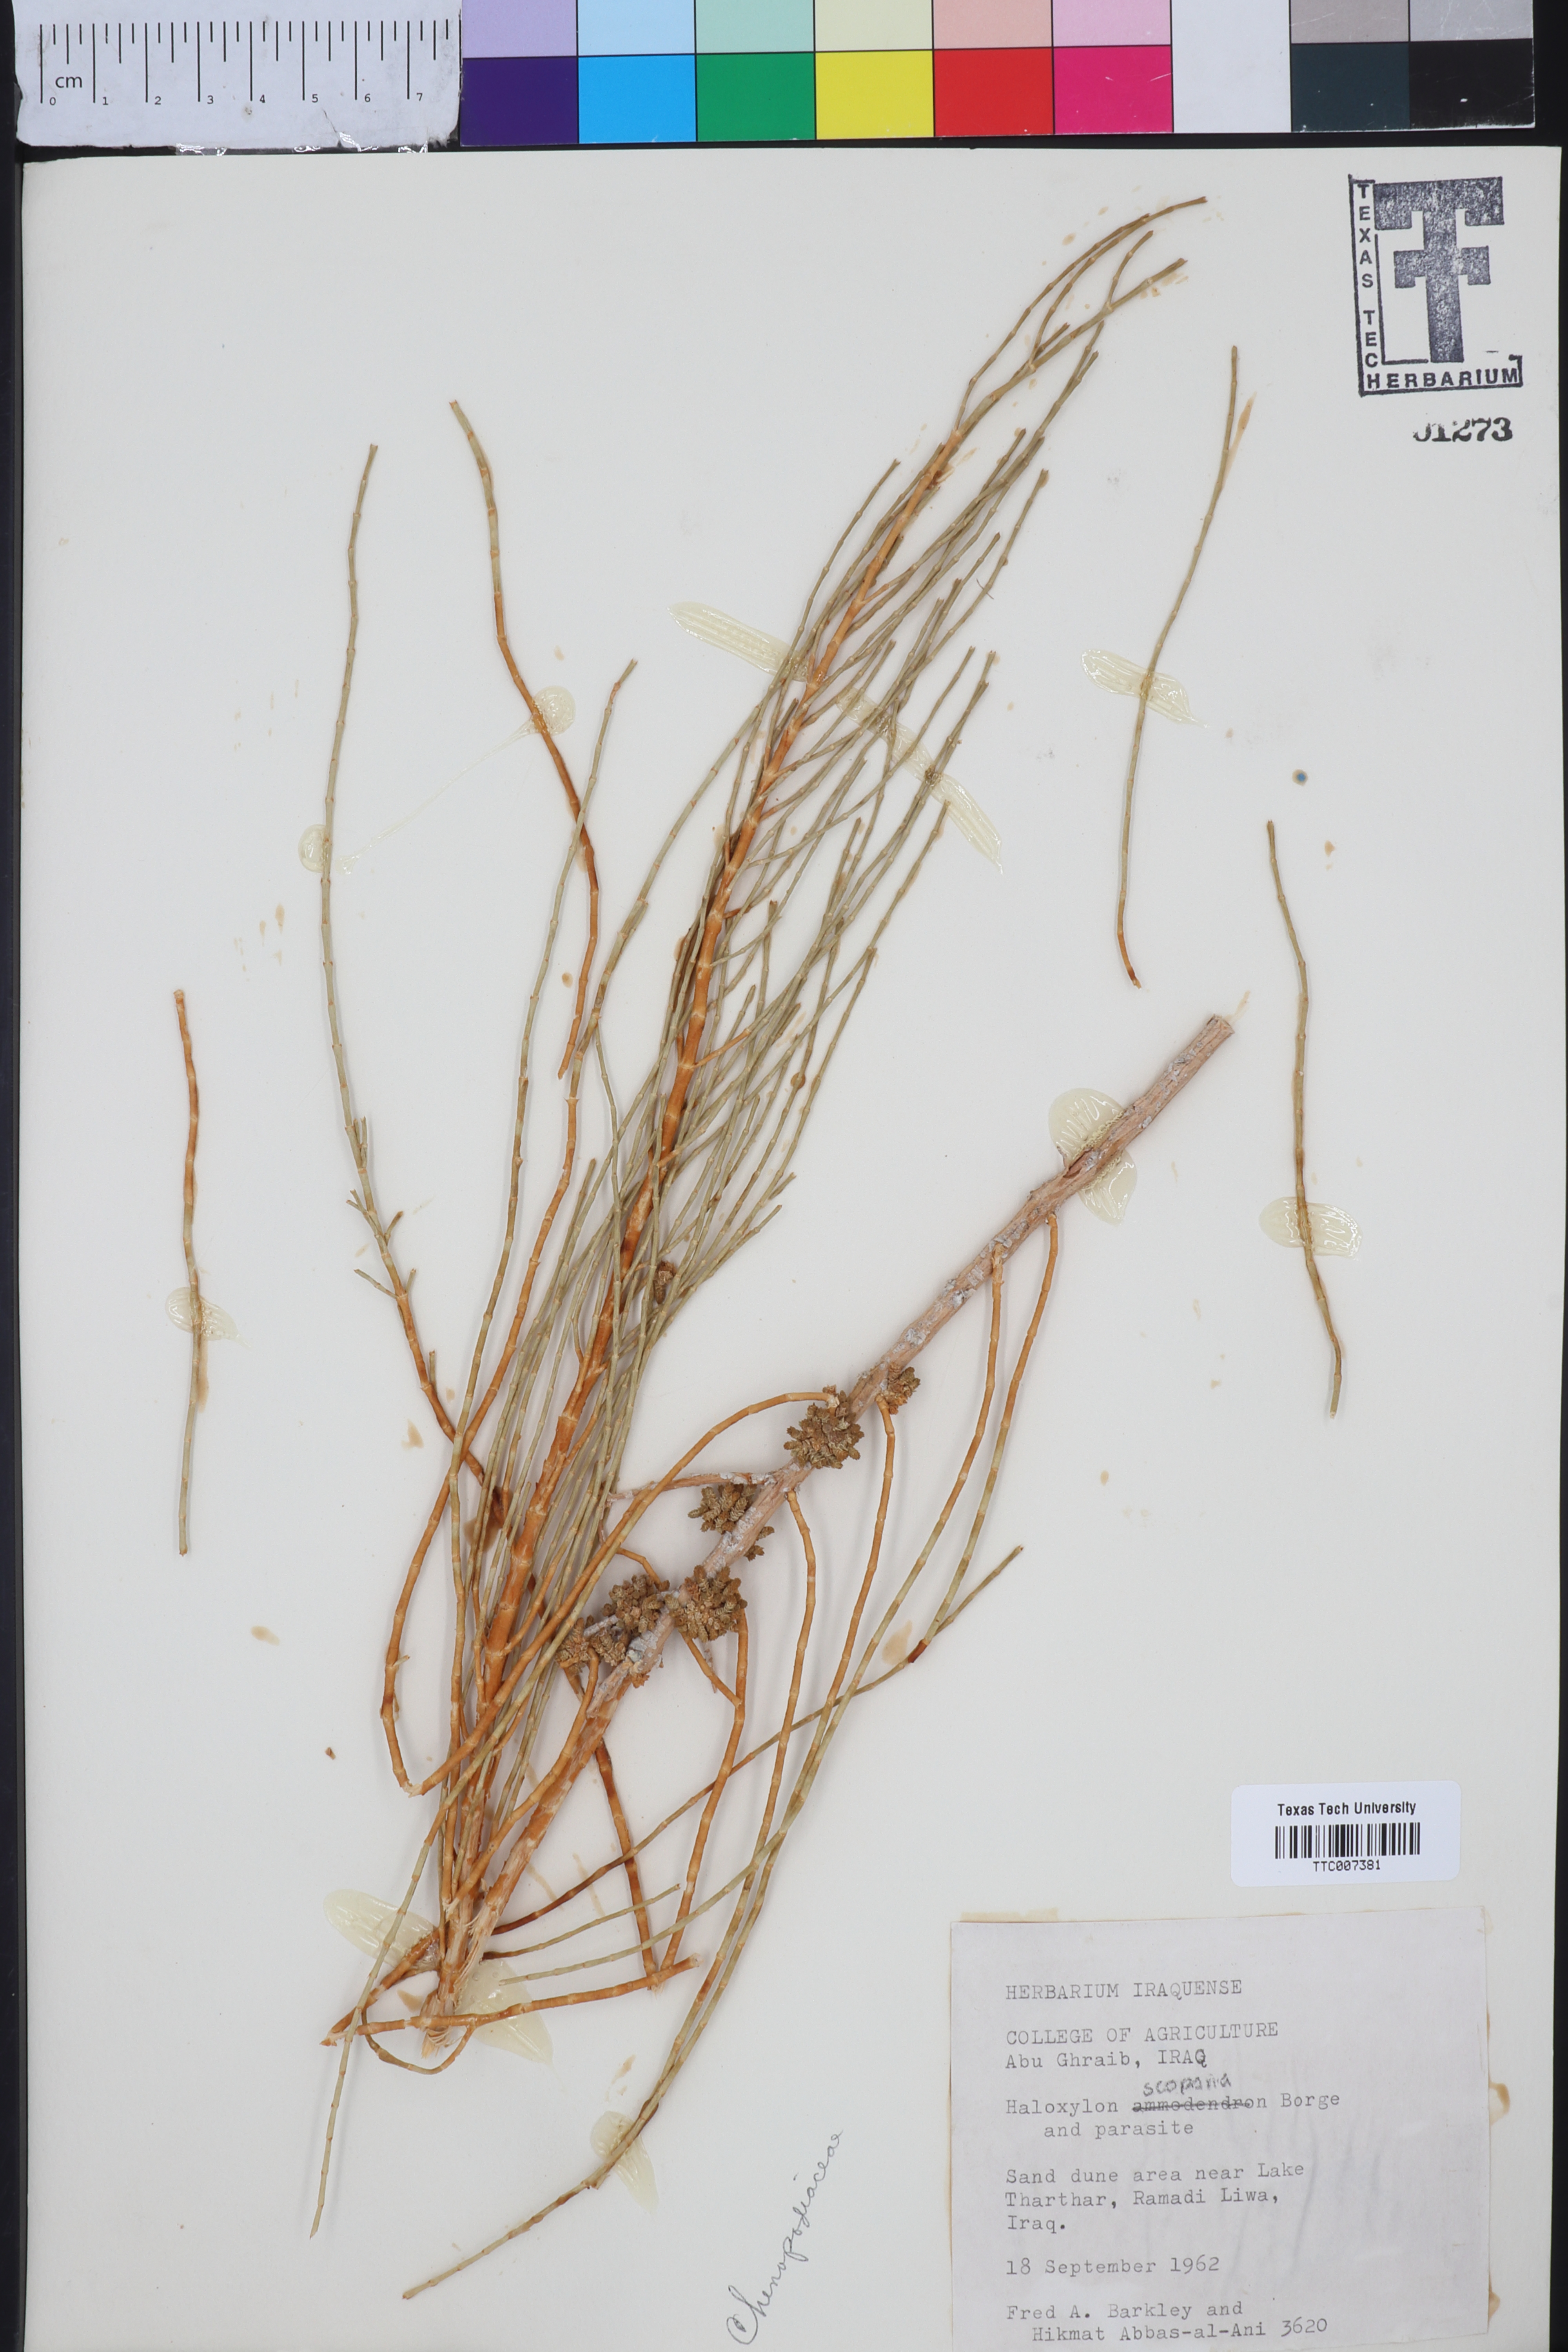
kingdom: Plantae
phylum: Tracheophyta
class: Magnoliopsida
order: Caryophyllales
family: Amaranthaceae
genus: Haloxylon
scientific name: Haloxylon ammodendron
